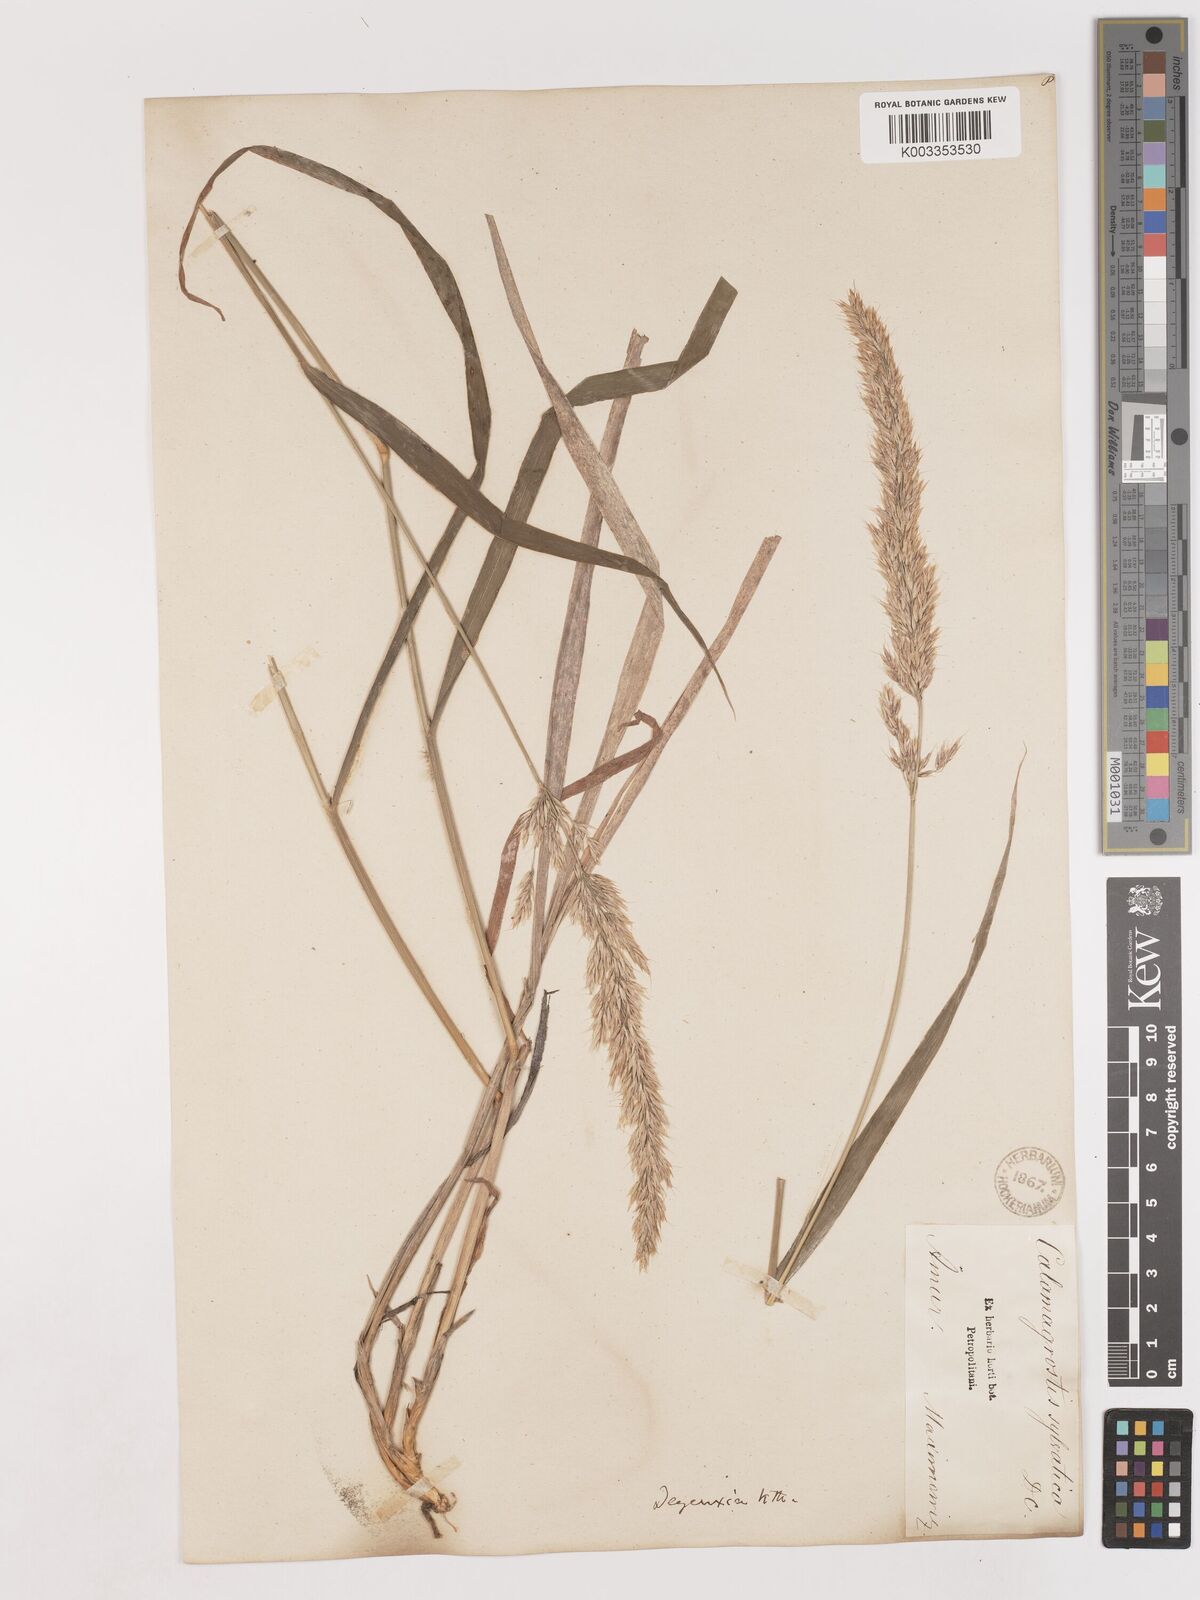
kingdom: Plantae
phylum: Tracheophyta
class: Liliopsida
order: Poales
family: Poaceae
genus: Calamagrostis
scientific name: Calamagrostis
